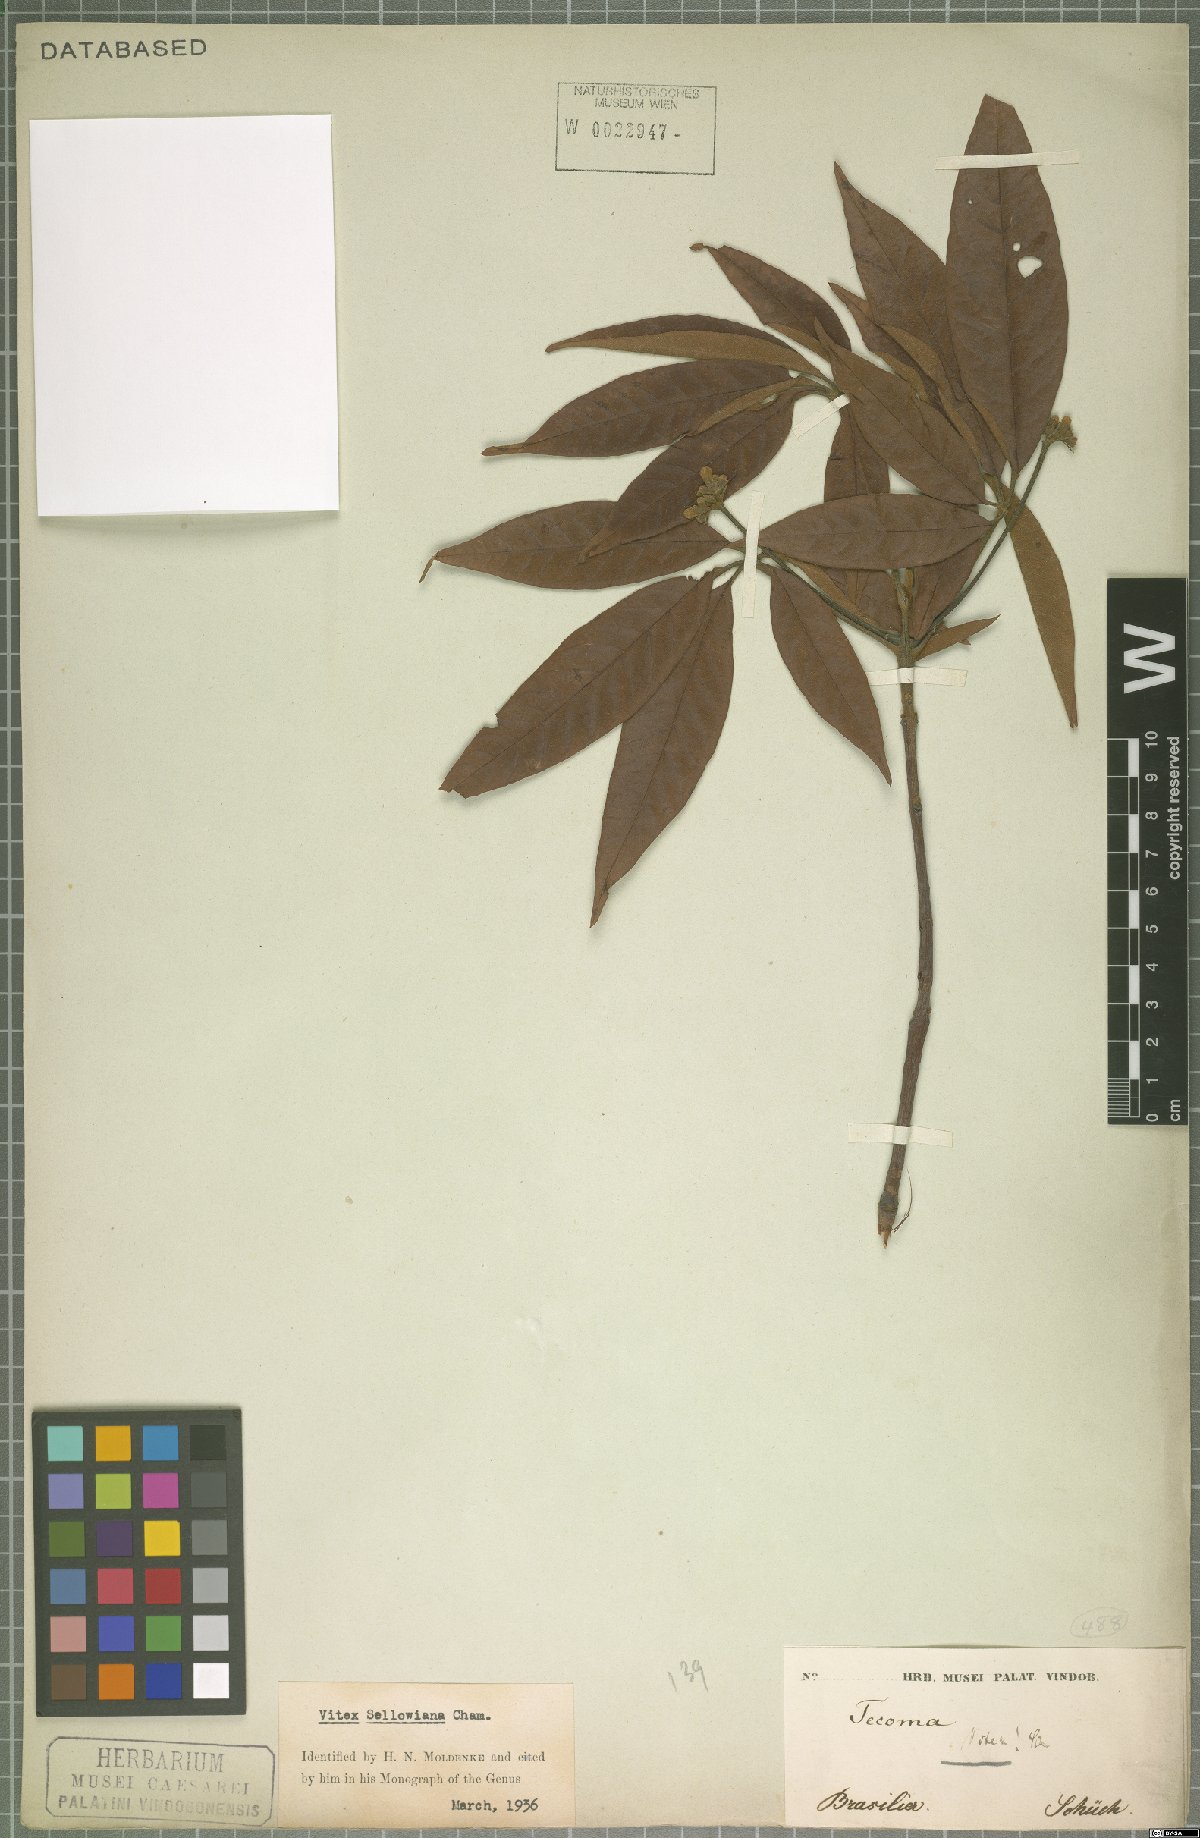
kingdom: Plantae
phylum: Tracheophyta
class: Magnoliopsida
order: Lamiales
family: Lamiaceae
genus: Vitex
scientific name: Vitex sellowiana
